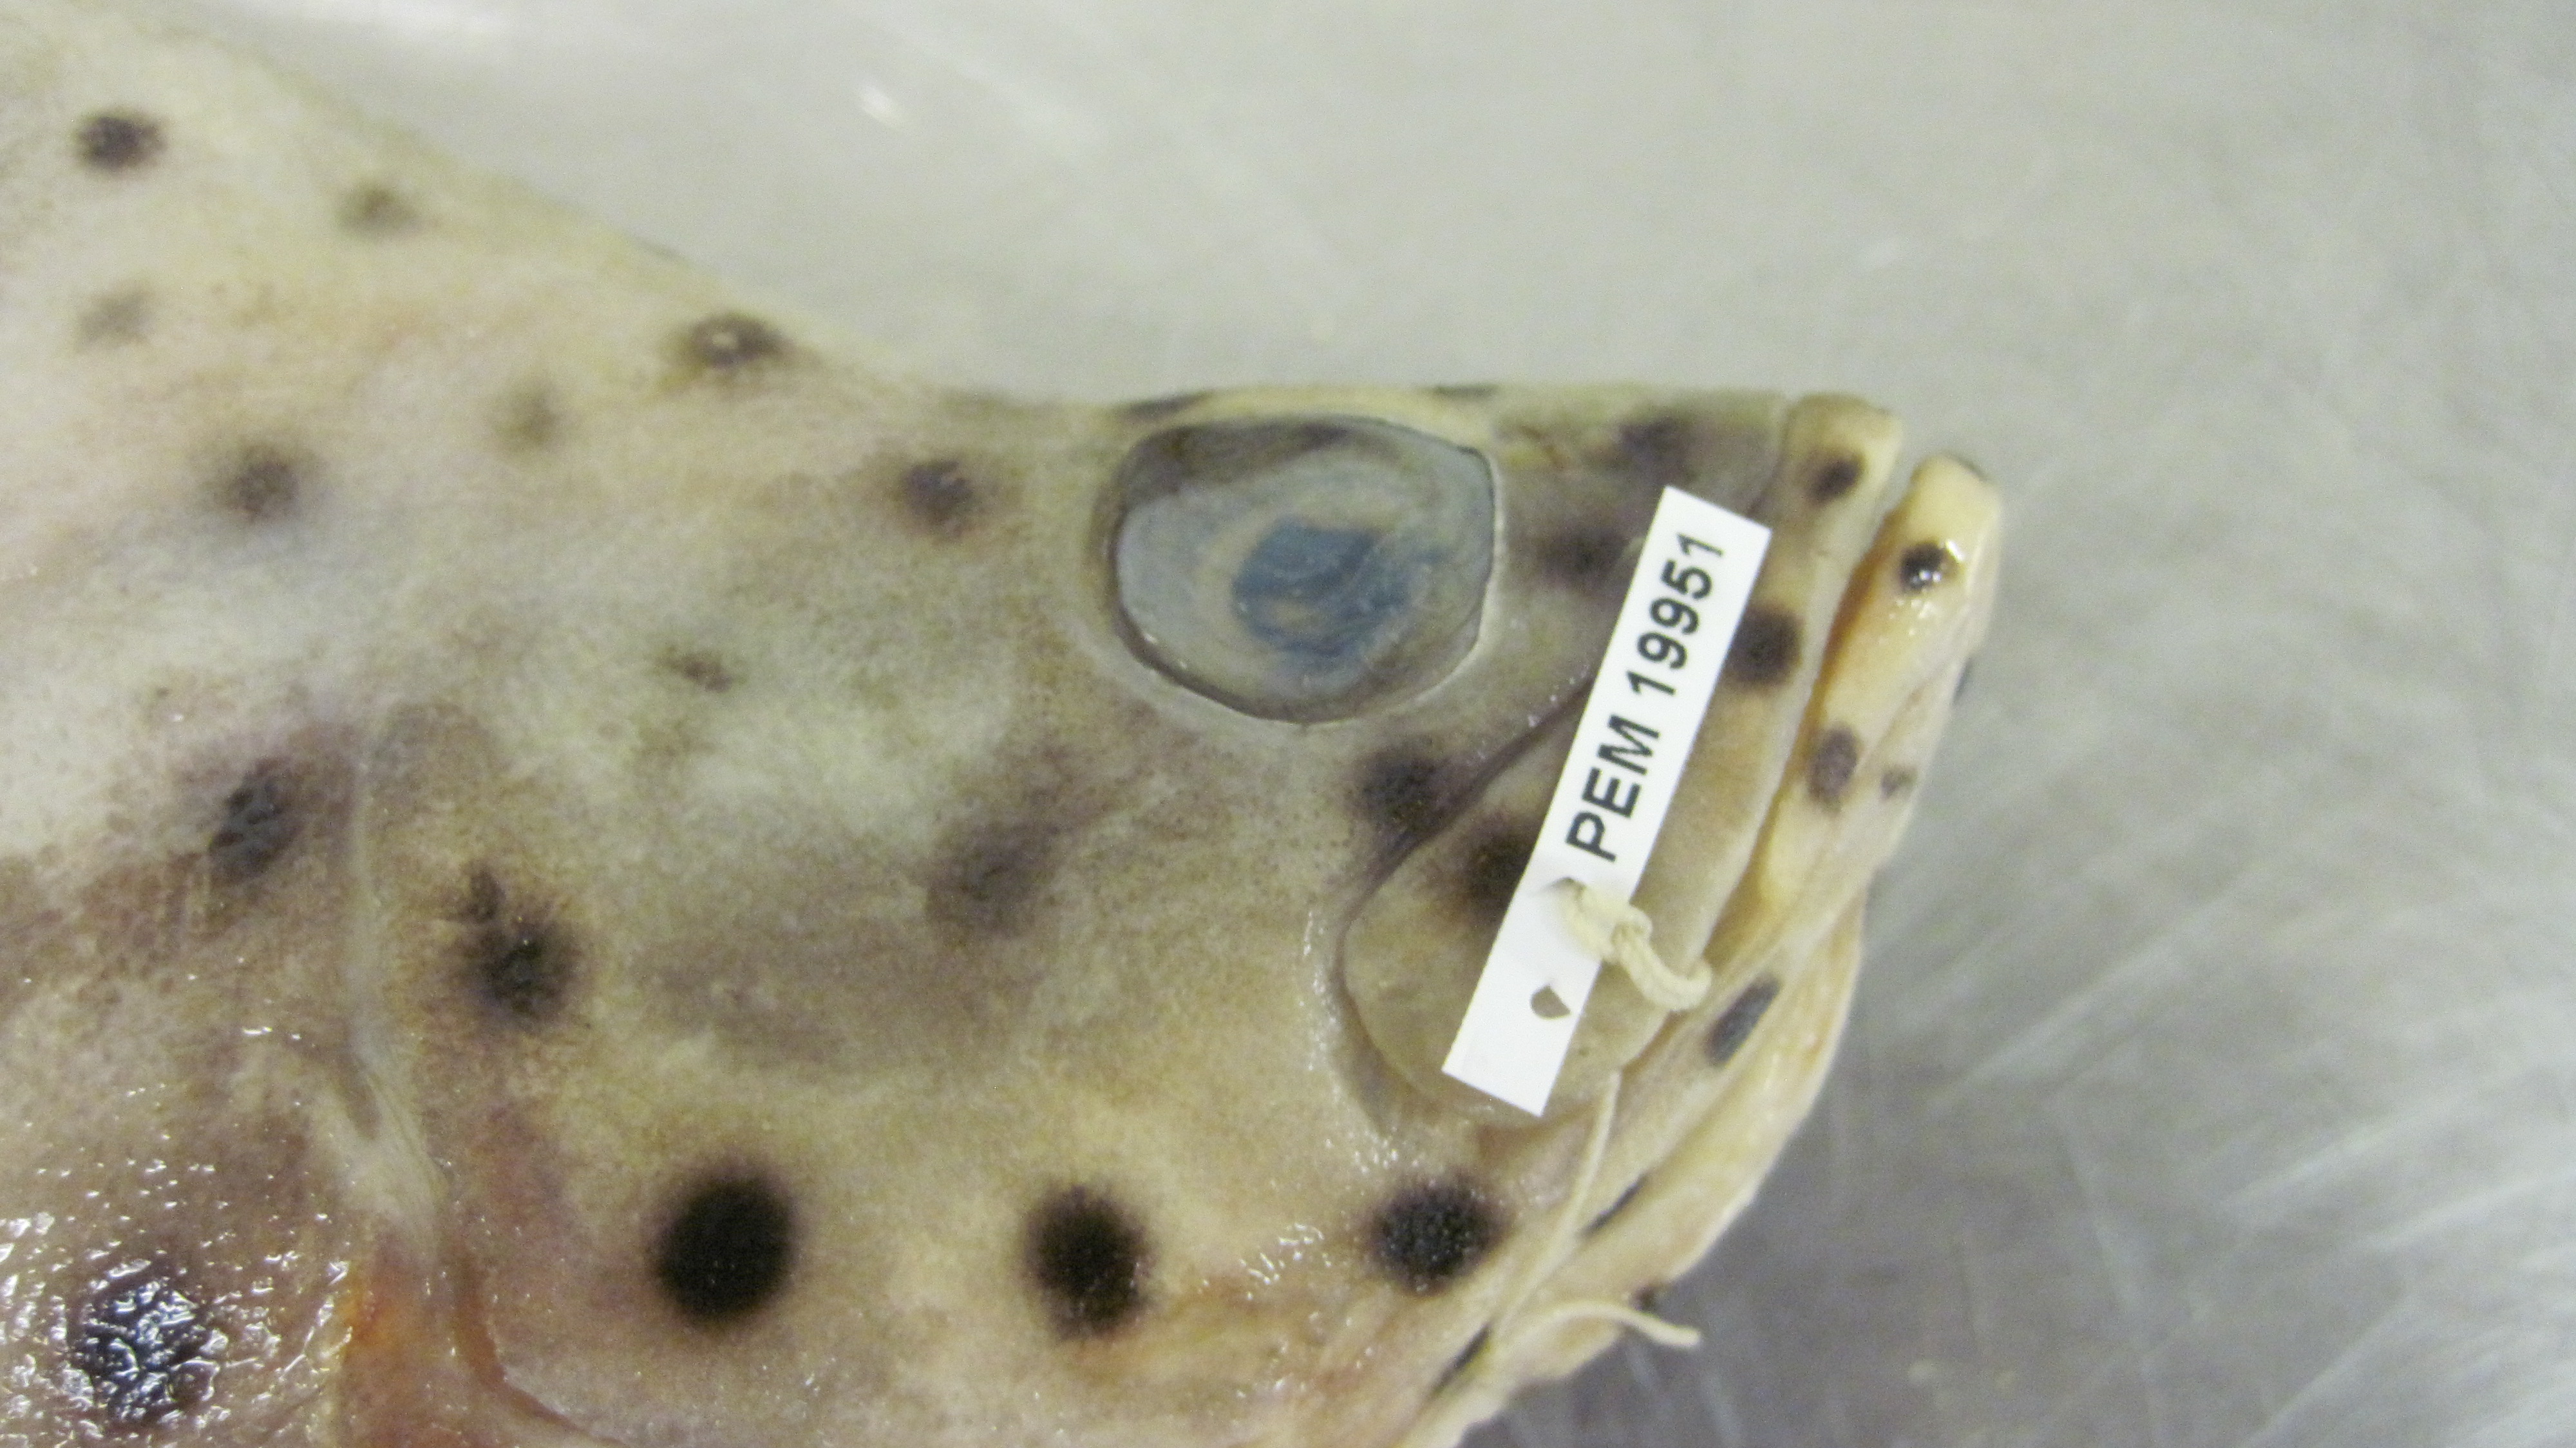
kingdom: Animalia
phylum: Chordata
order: Perciformes
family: Serranidae
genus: Cromileptes
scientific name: Cromileptes altivelis
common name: Humpback grouper
